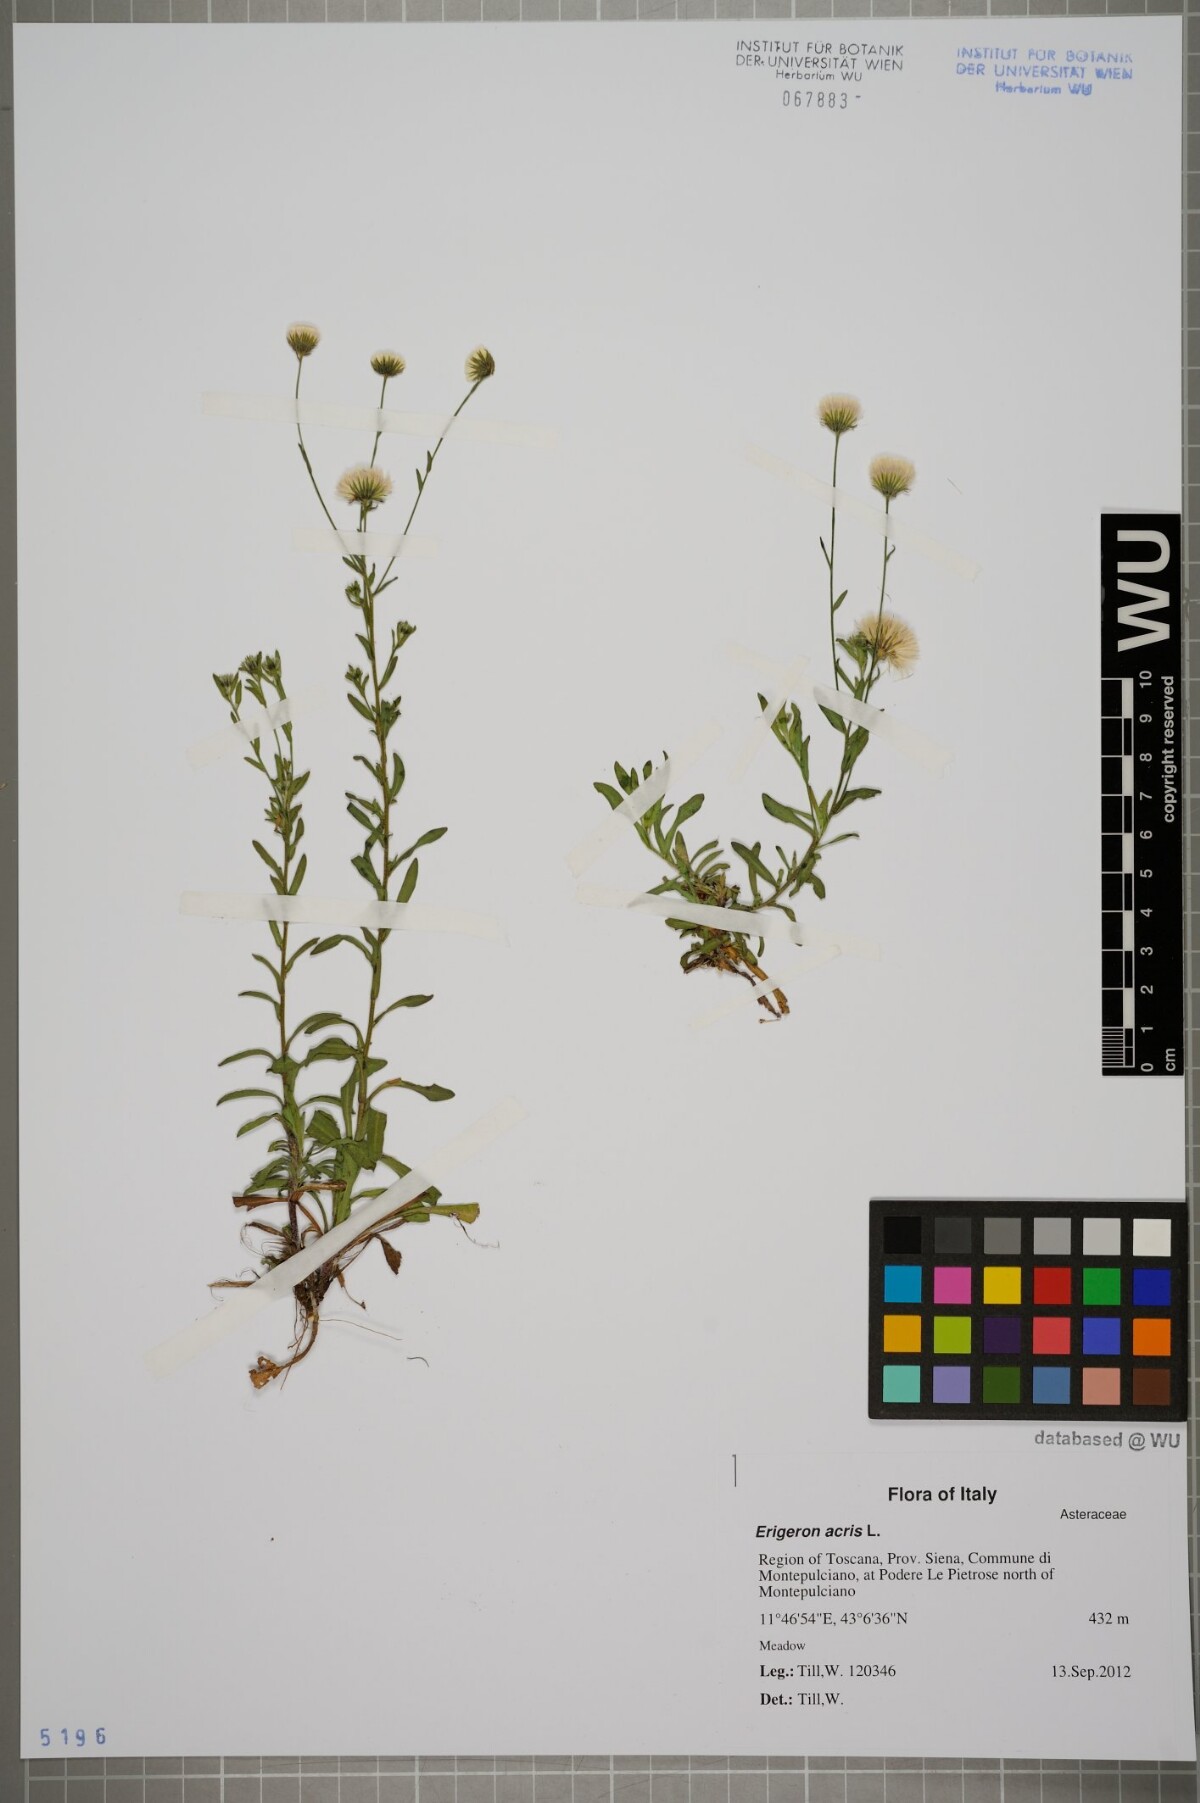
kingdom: Plantae
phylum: Tracheophyta
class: Magnoliopsida
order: Asterales
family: Asteraceae
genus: Erigeron
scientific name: Erigeron acris
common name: Blue fleabane
